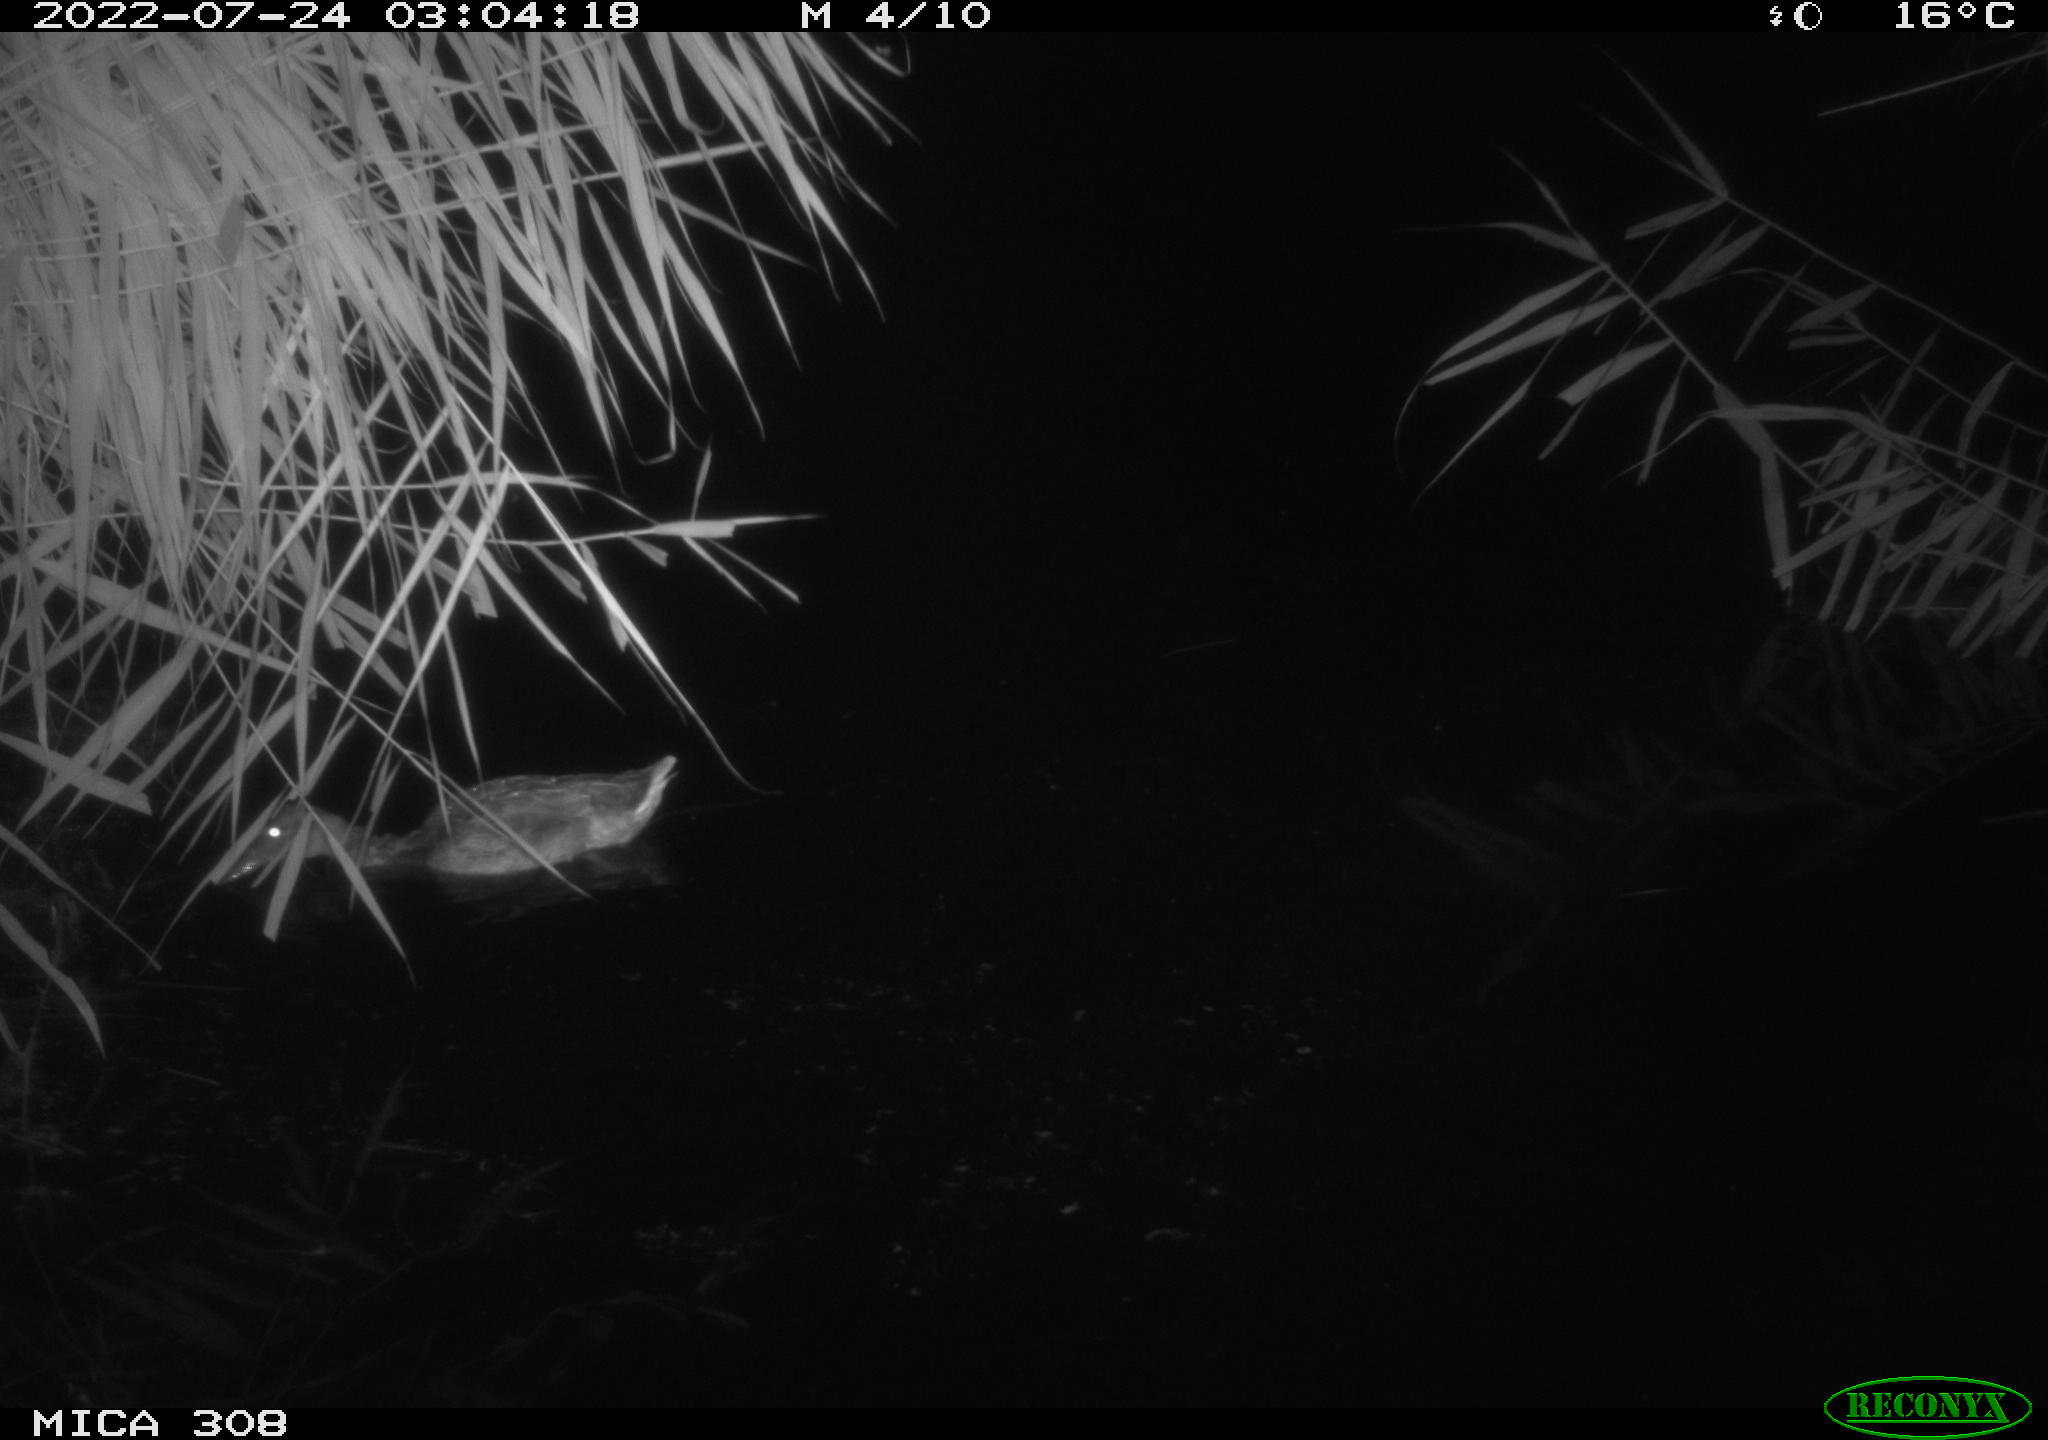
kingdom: Animalia
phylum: Chordata
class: Aves
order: Gruiformes
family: Rallidae
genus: Gallinula
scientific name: Gallinula chloropus
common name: Common moorhen
